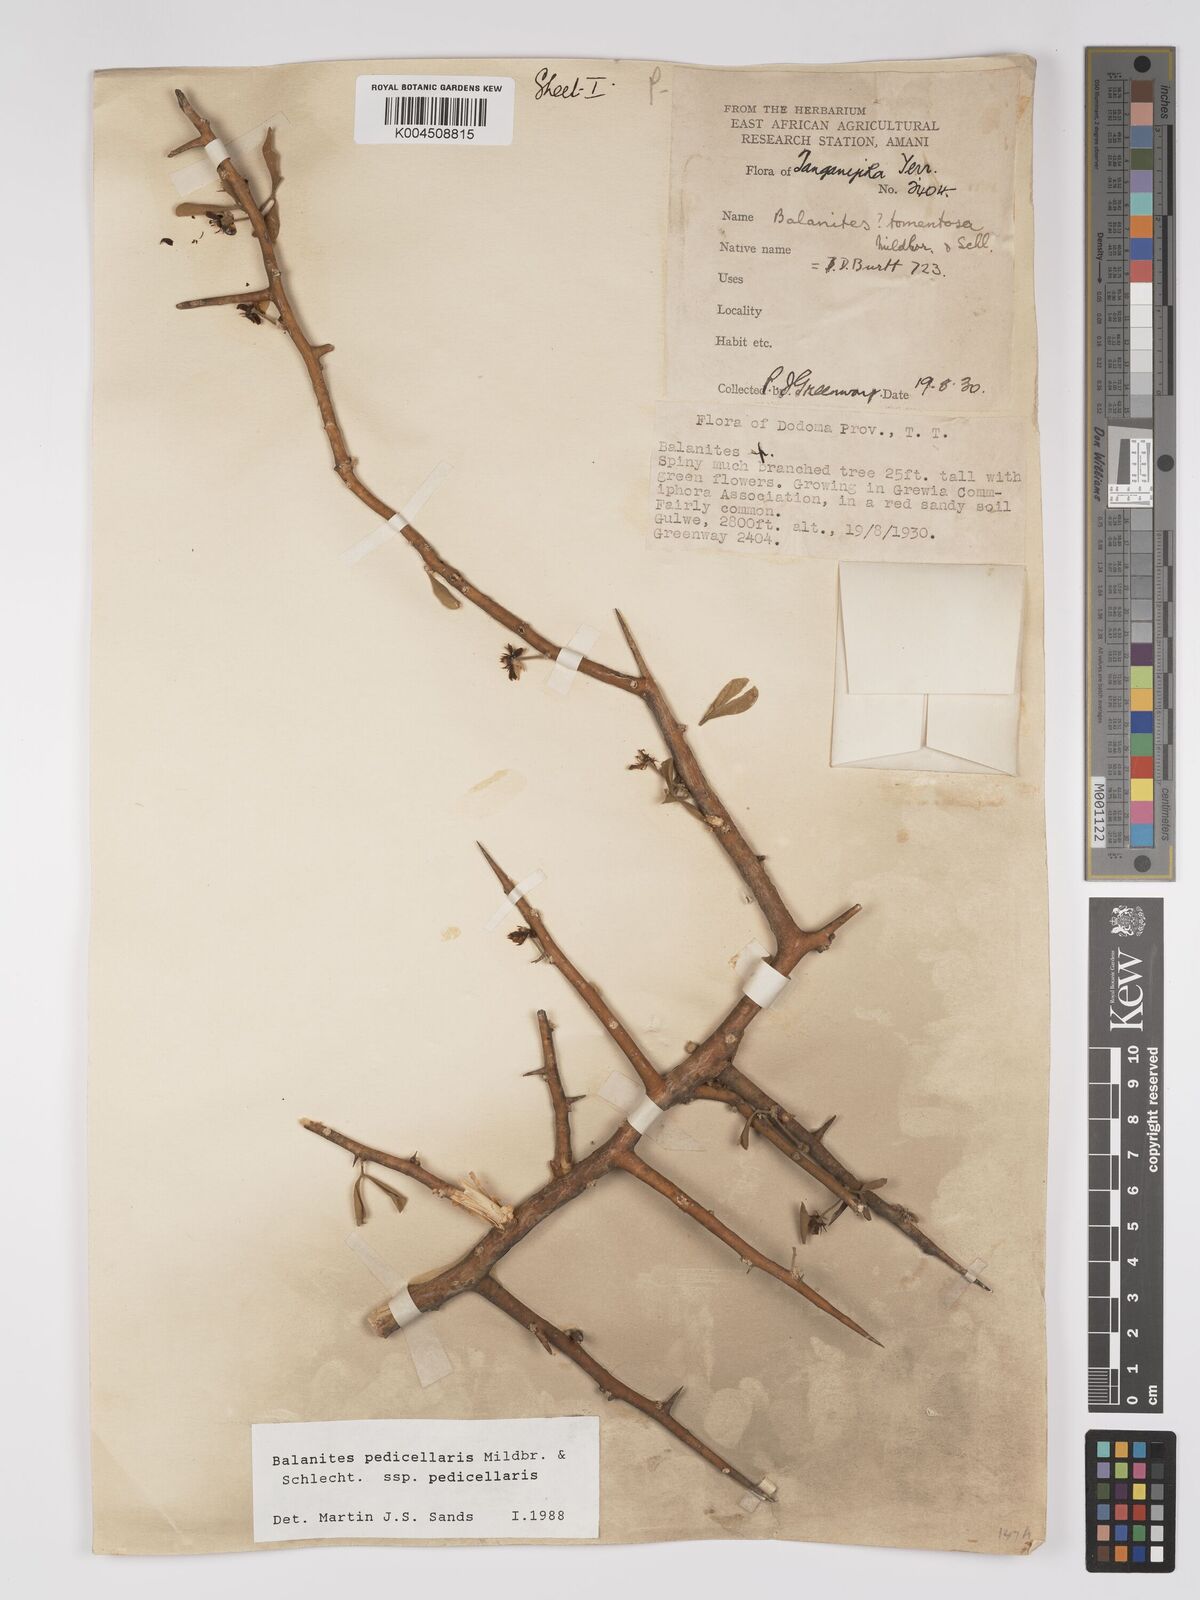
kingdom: Plantae
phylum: Tracheophyta
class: Magnoliopsida
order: Zygophyllales
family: Zygophyllaceae
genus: Balanites
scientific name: Balanites pedicellaris
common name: Small green-thorn
